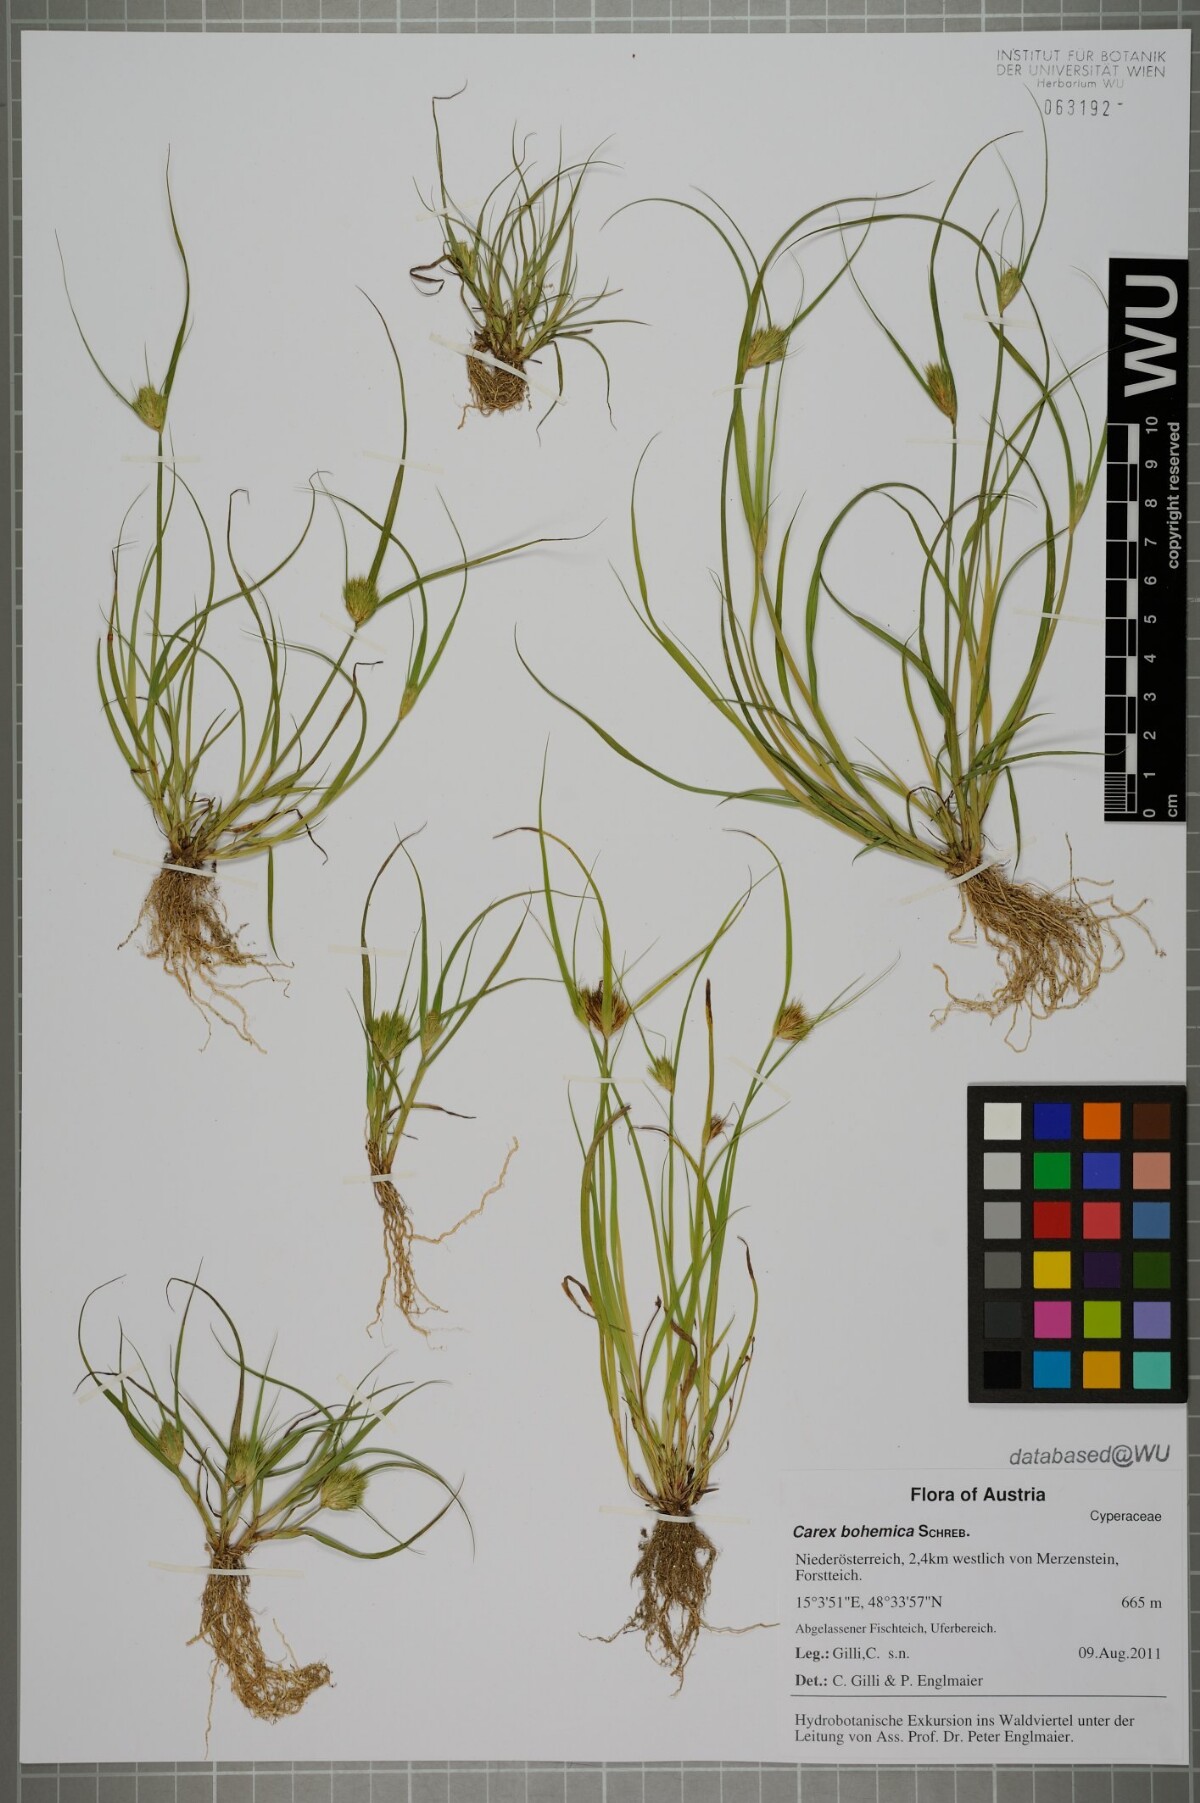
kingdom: Plantae
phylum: Tracheophyta
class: Liliopsida
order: Poales
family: Cyperaceae
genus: Carex
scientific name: Carex bohemica
